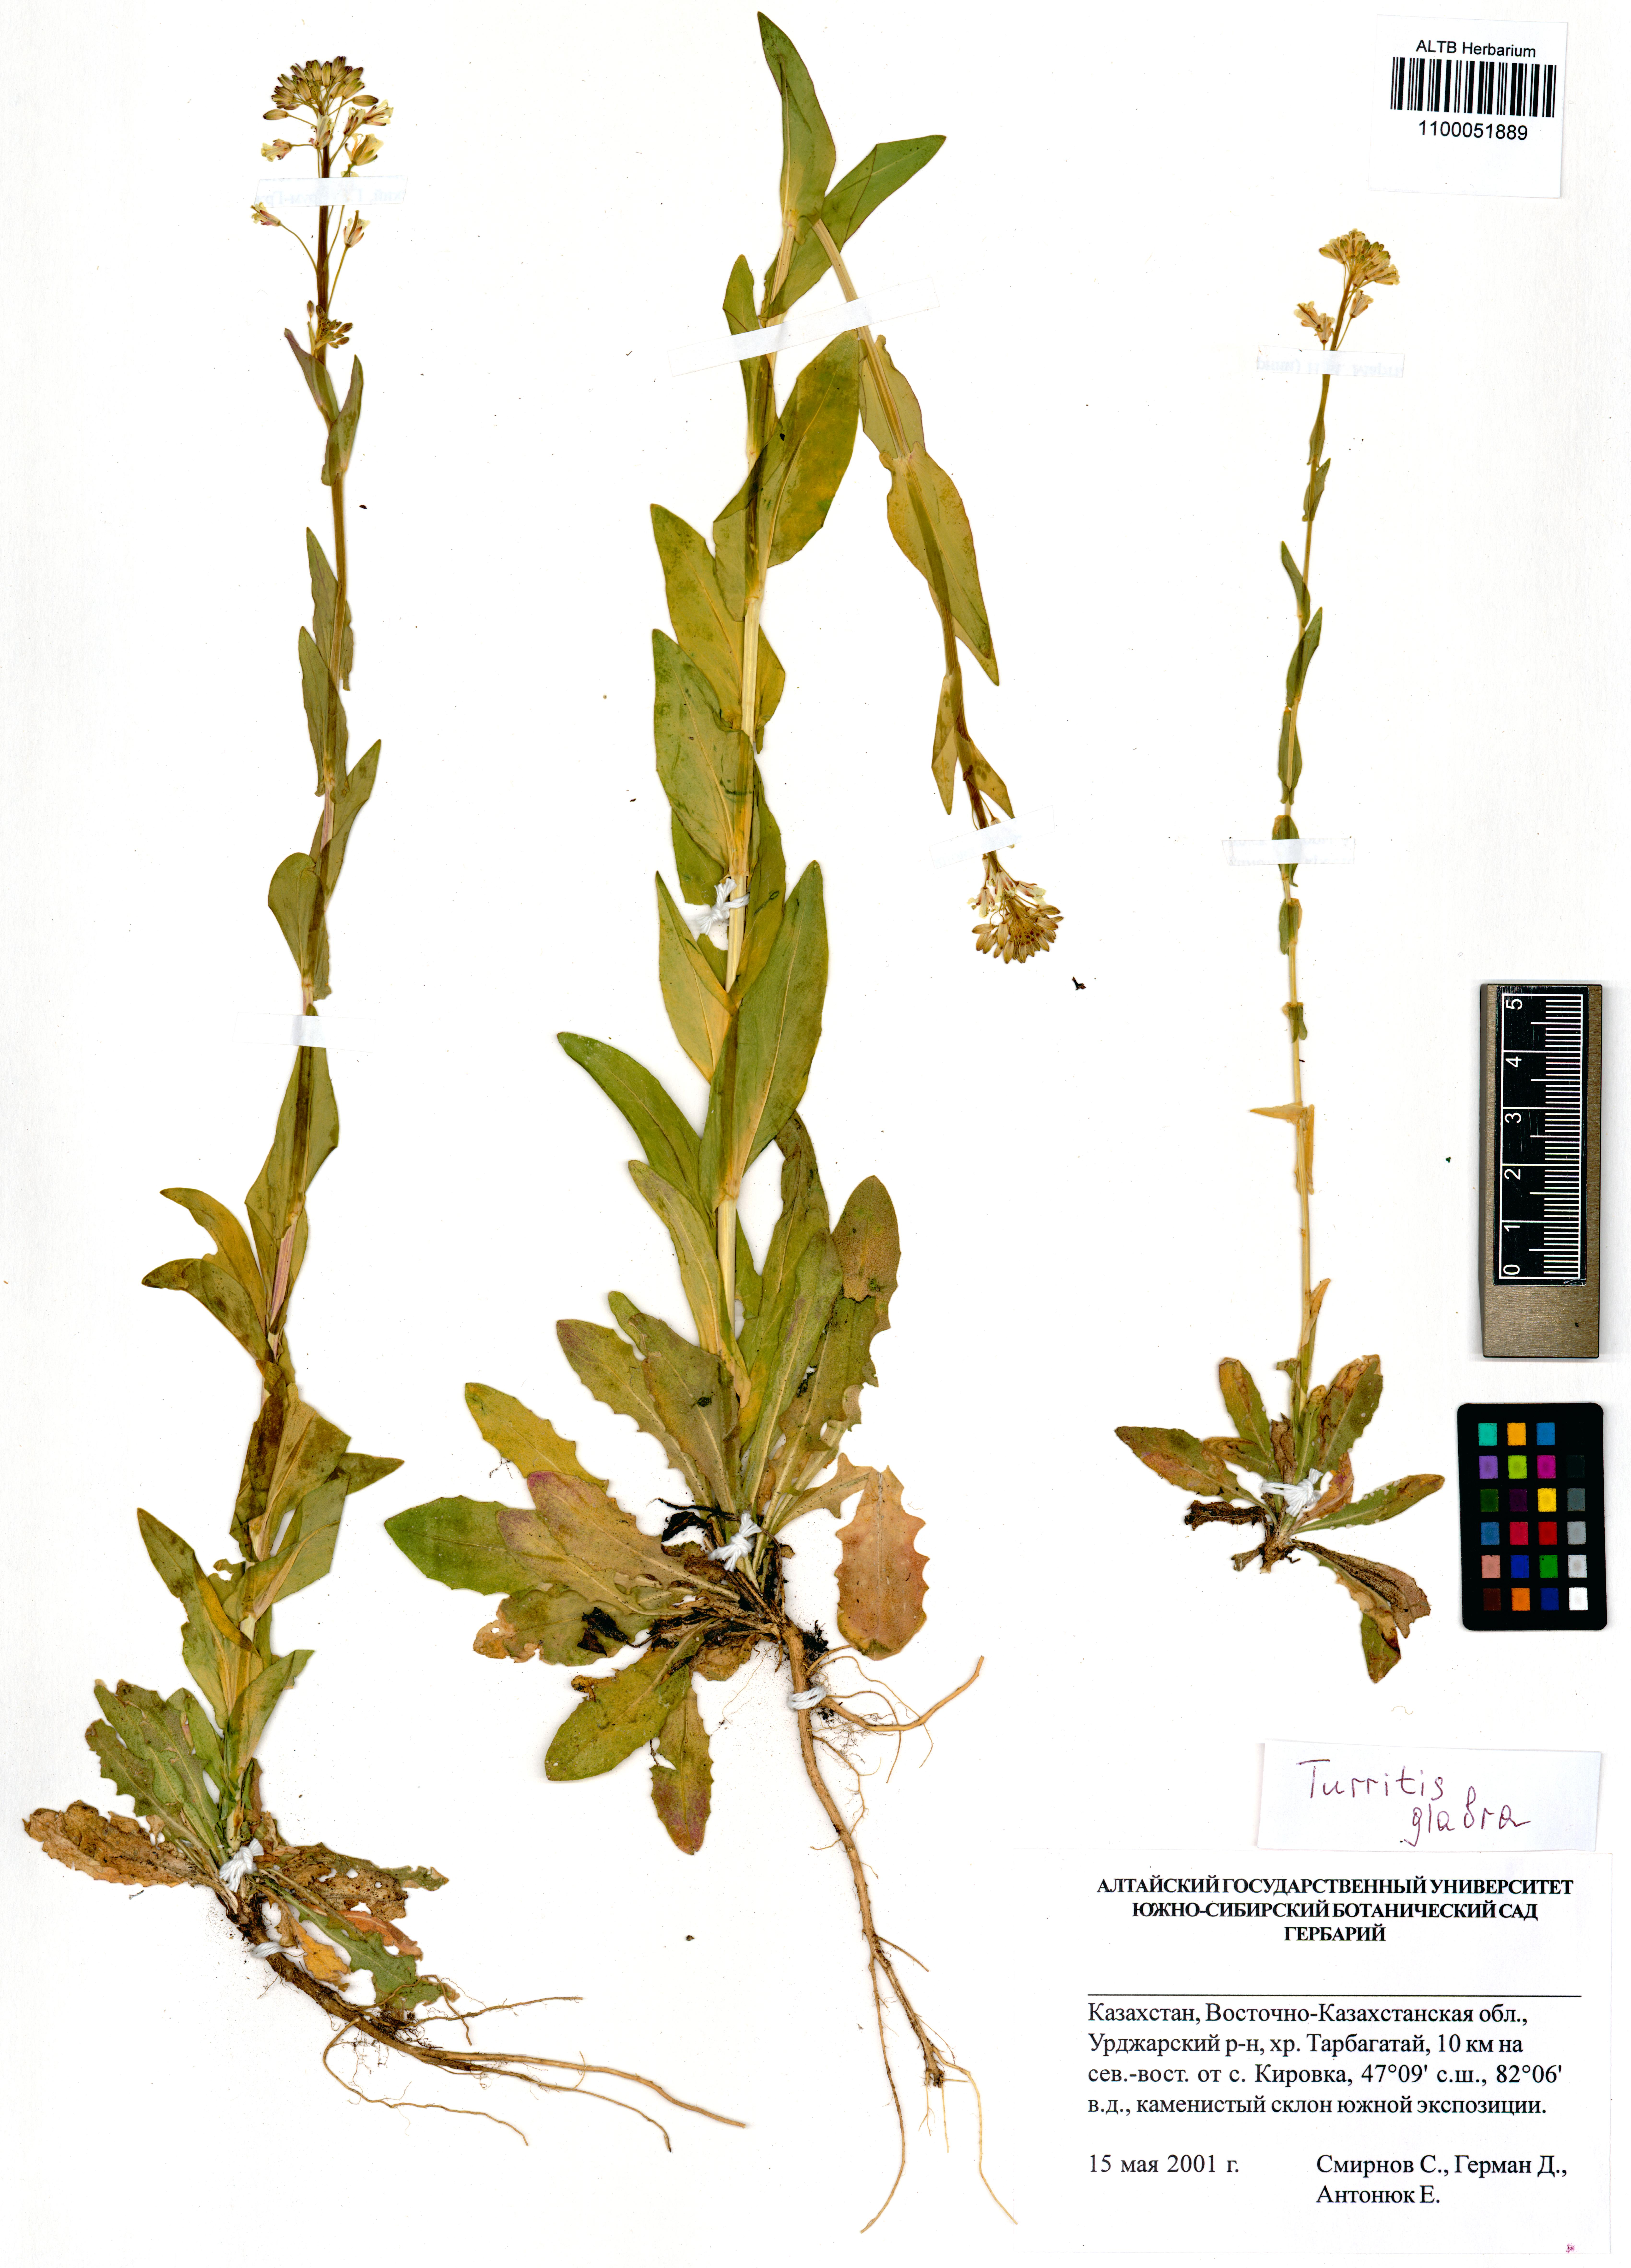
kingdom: Plantae
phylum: Tracheophyta
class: Magnoliopsida
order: Brassicales
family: Brassicaceae
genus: Turritis
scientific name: Turritis glabra
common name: Tower rockcress
